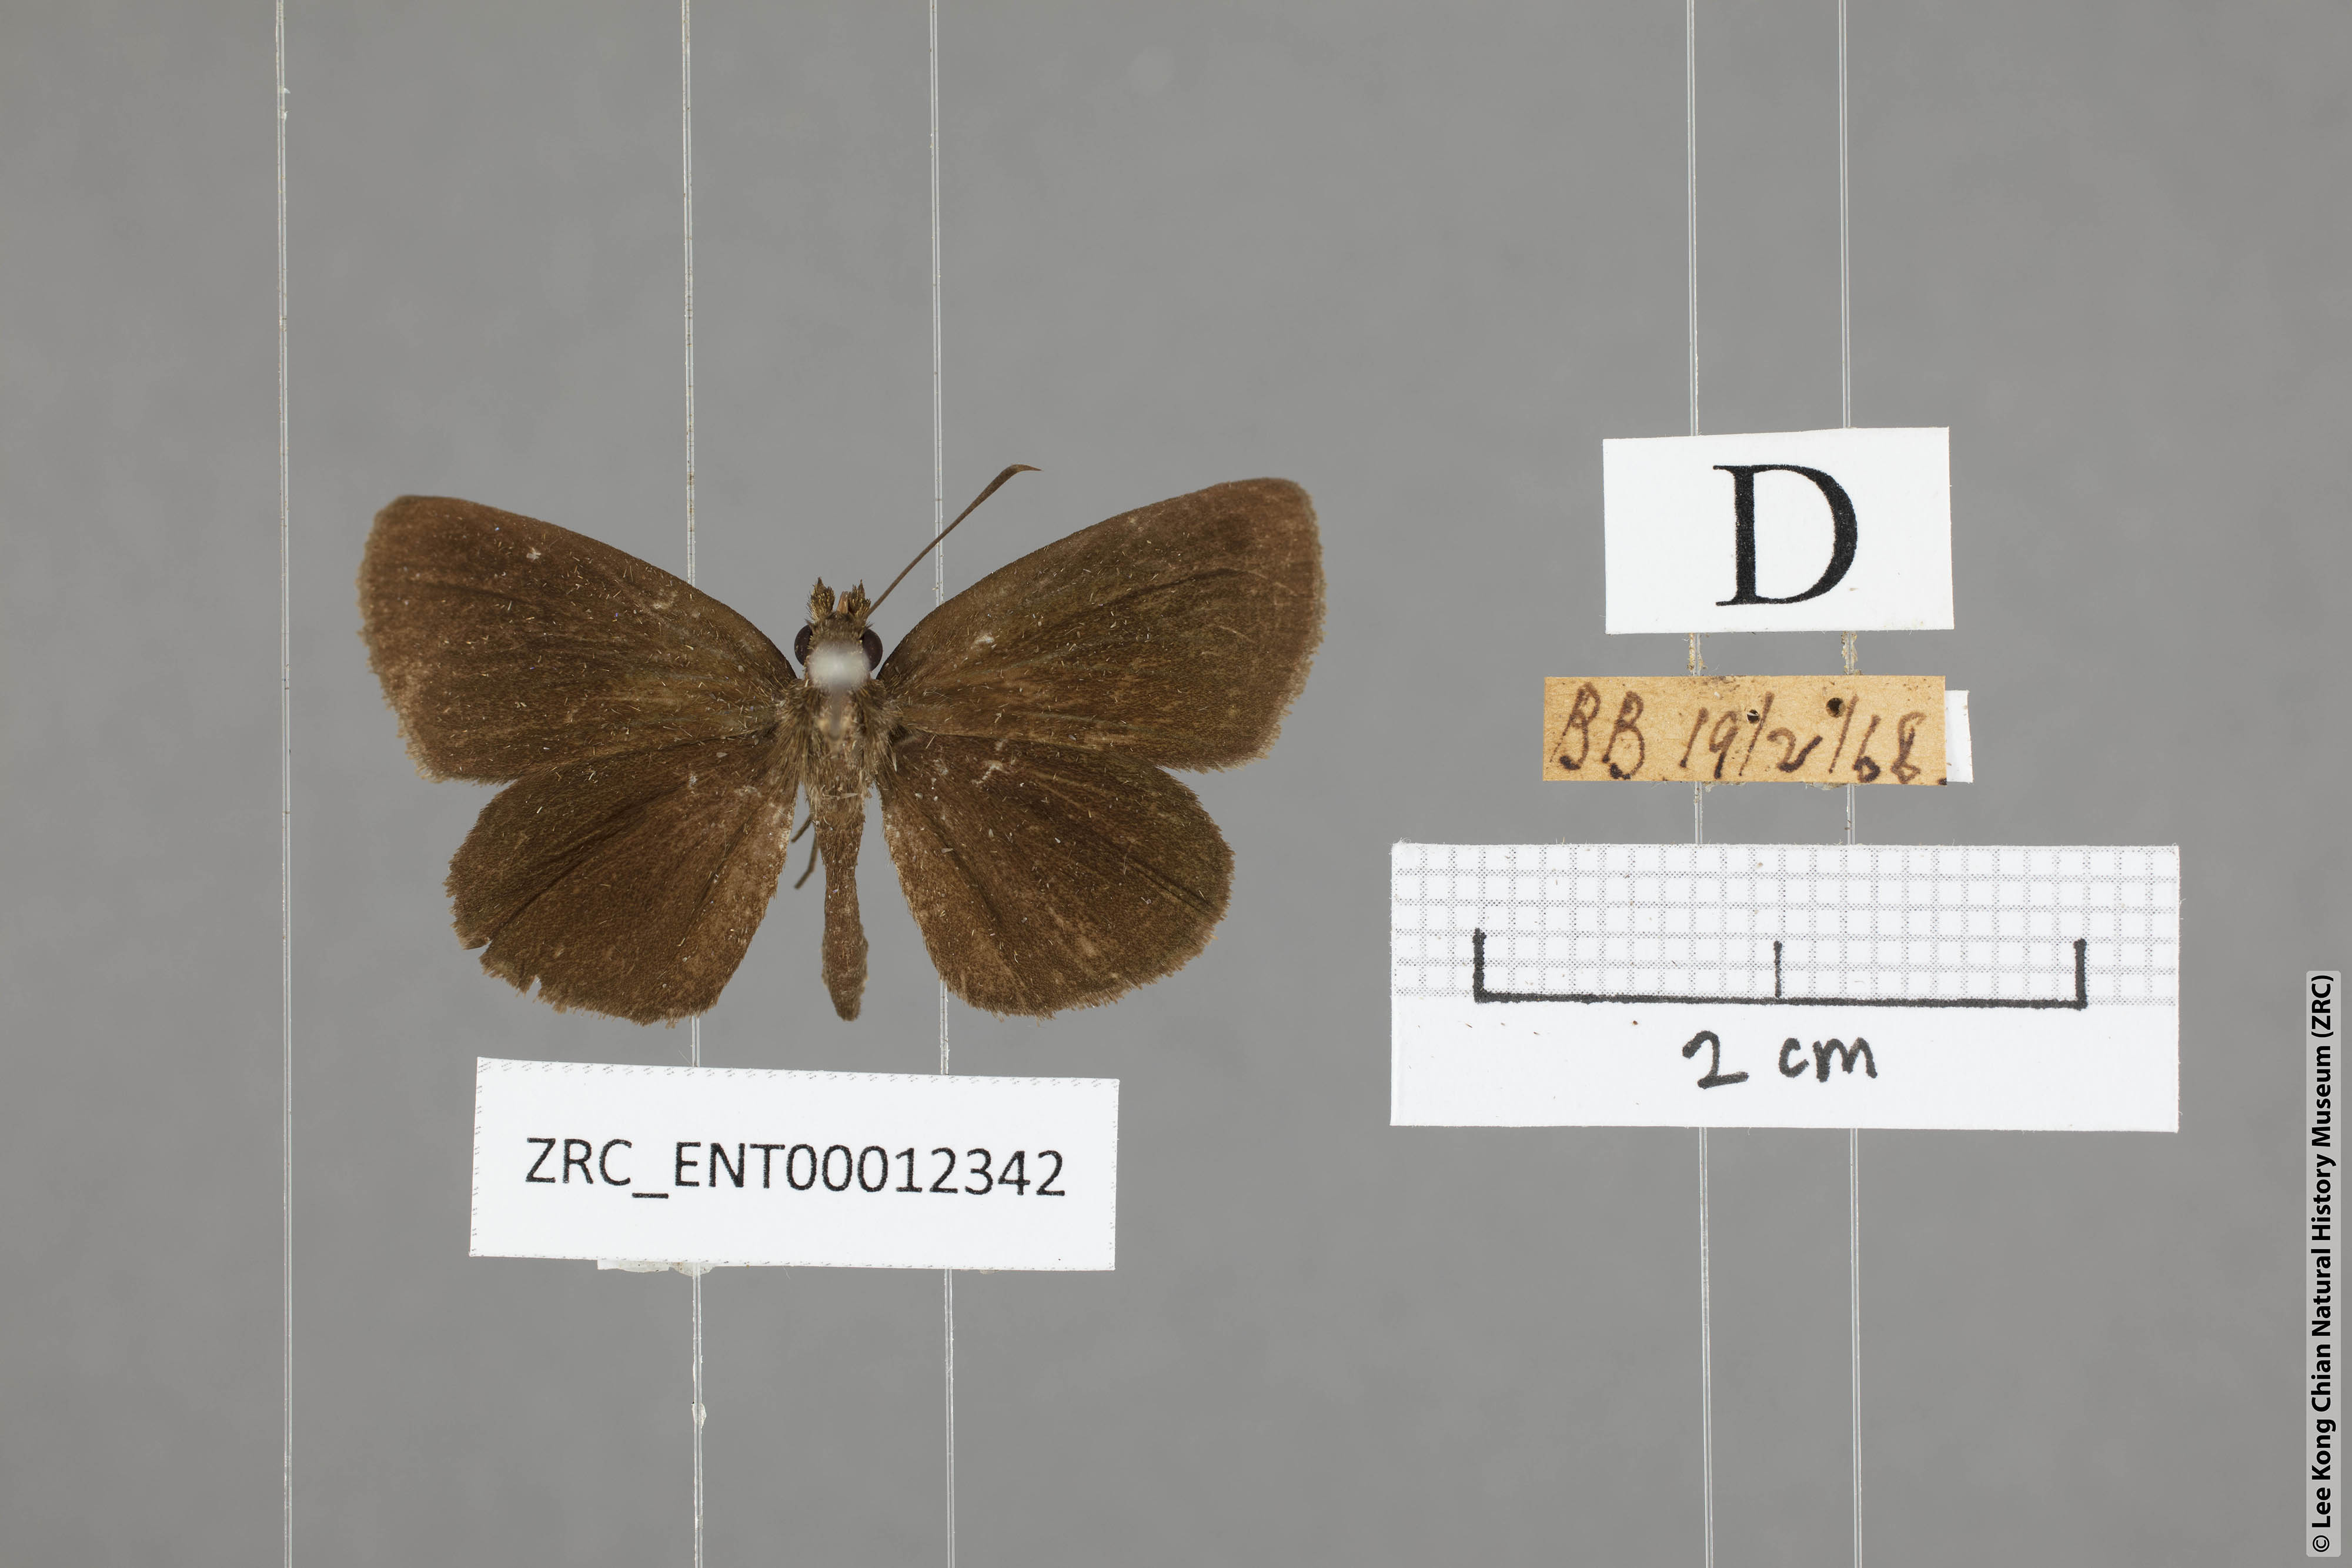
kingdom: Animalia
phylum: Arthropoda
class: Insecta
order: Lepidoptera
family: Hesperiidae
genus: Astictopterus
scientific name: Astictopterus jama
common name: Forest hopper
